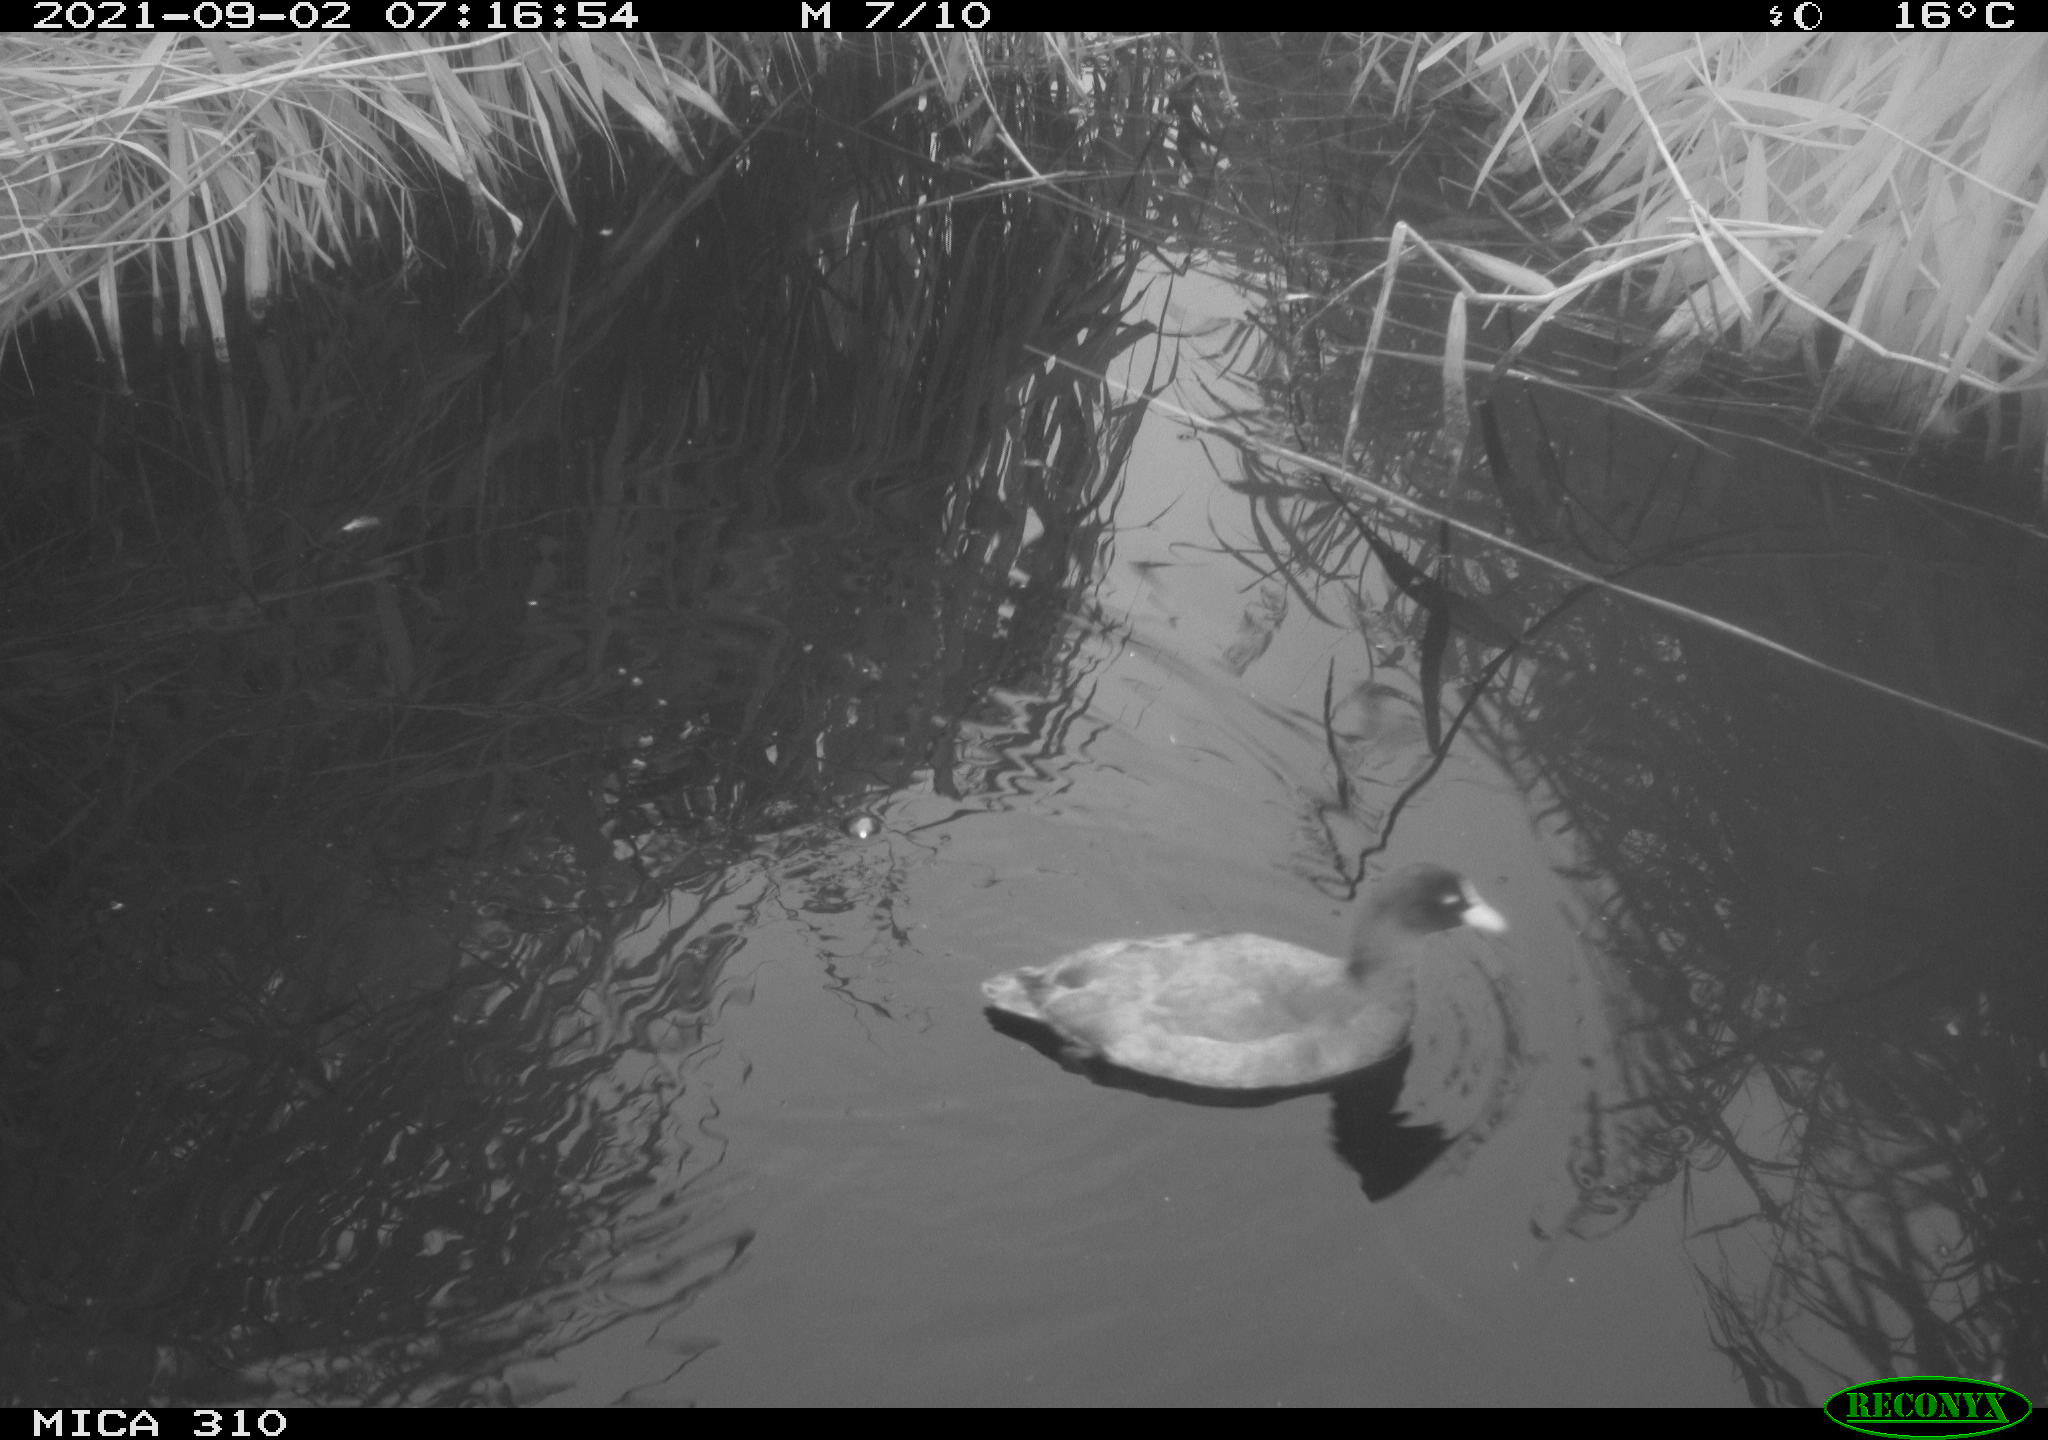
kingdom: Animalia
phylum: Chordata
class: Aves
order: Gruiformes
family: Rallidae
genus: Fulica
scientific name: Fulica atra
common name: Eurasian coot
